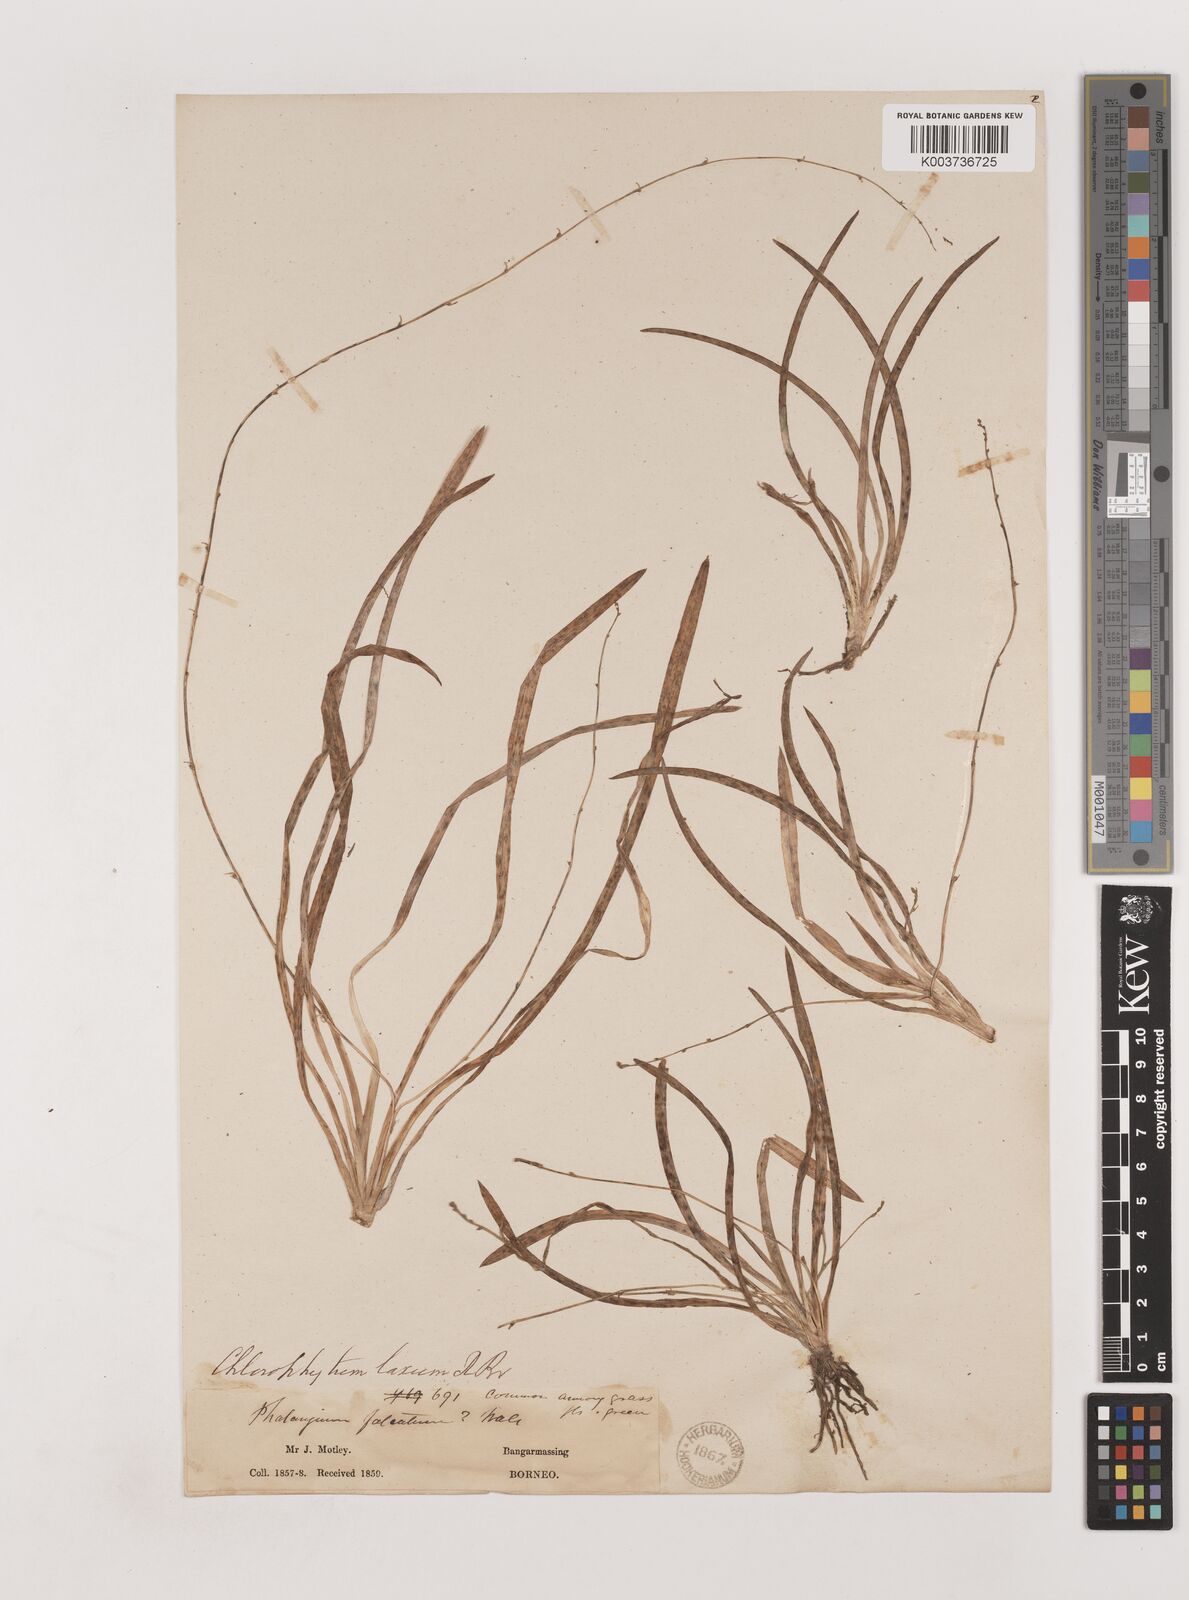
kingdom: Plantae
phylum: Tracheophyta
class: Liliopsida
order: Asparagales
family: Asparagaceae
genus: Chlorophytum
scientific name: Chlorophytum laxum
